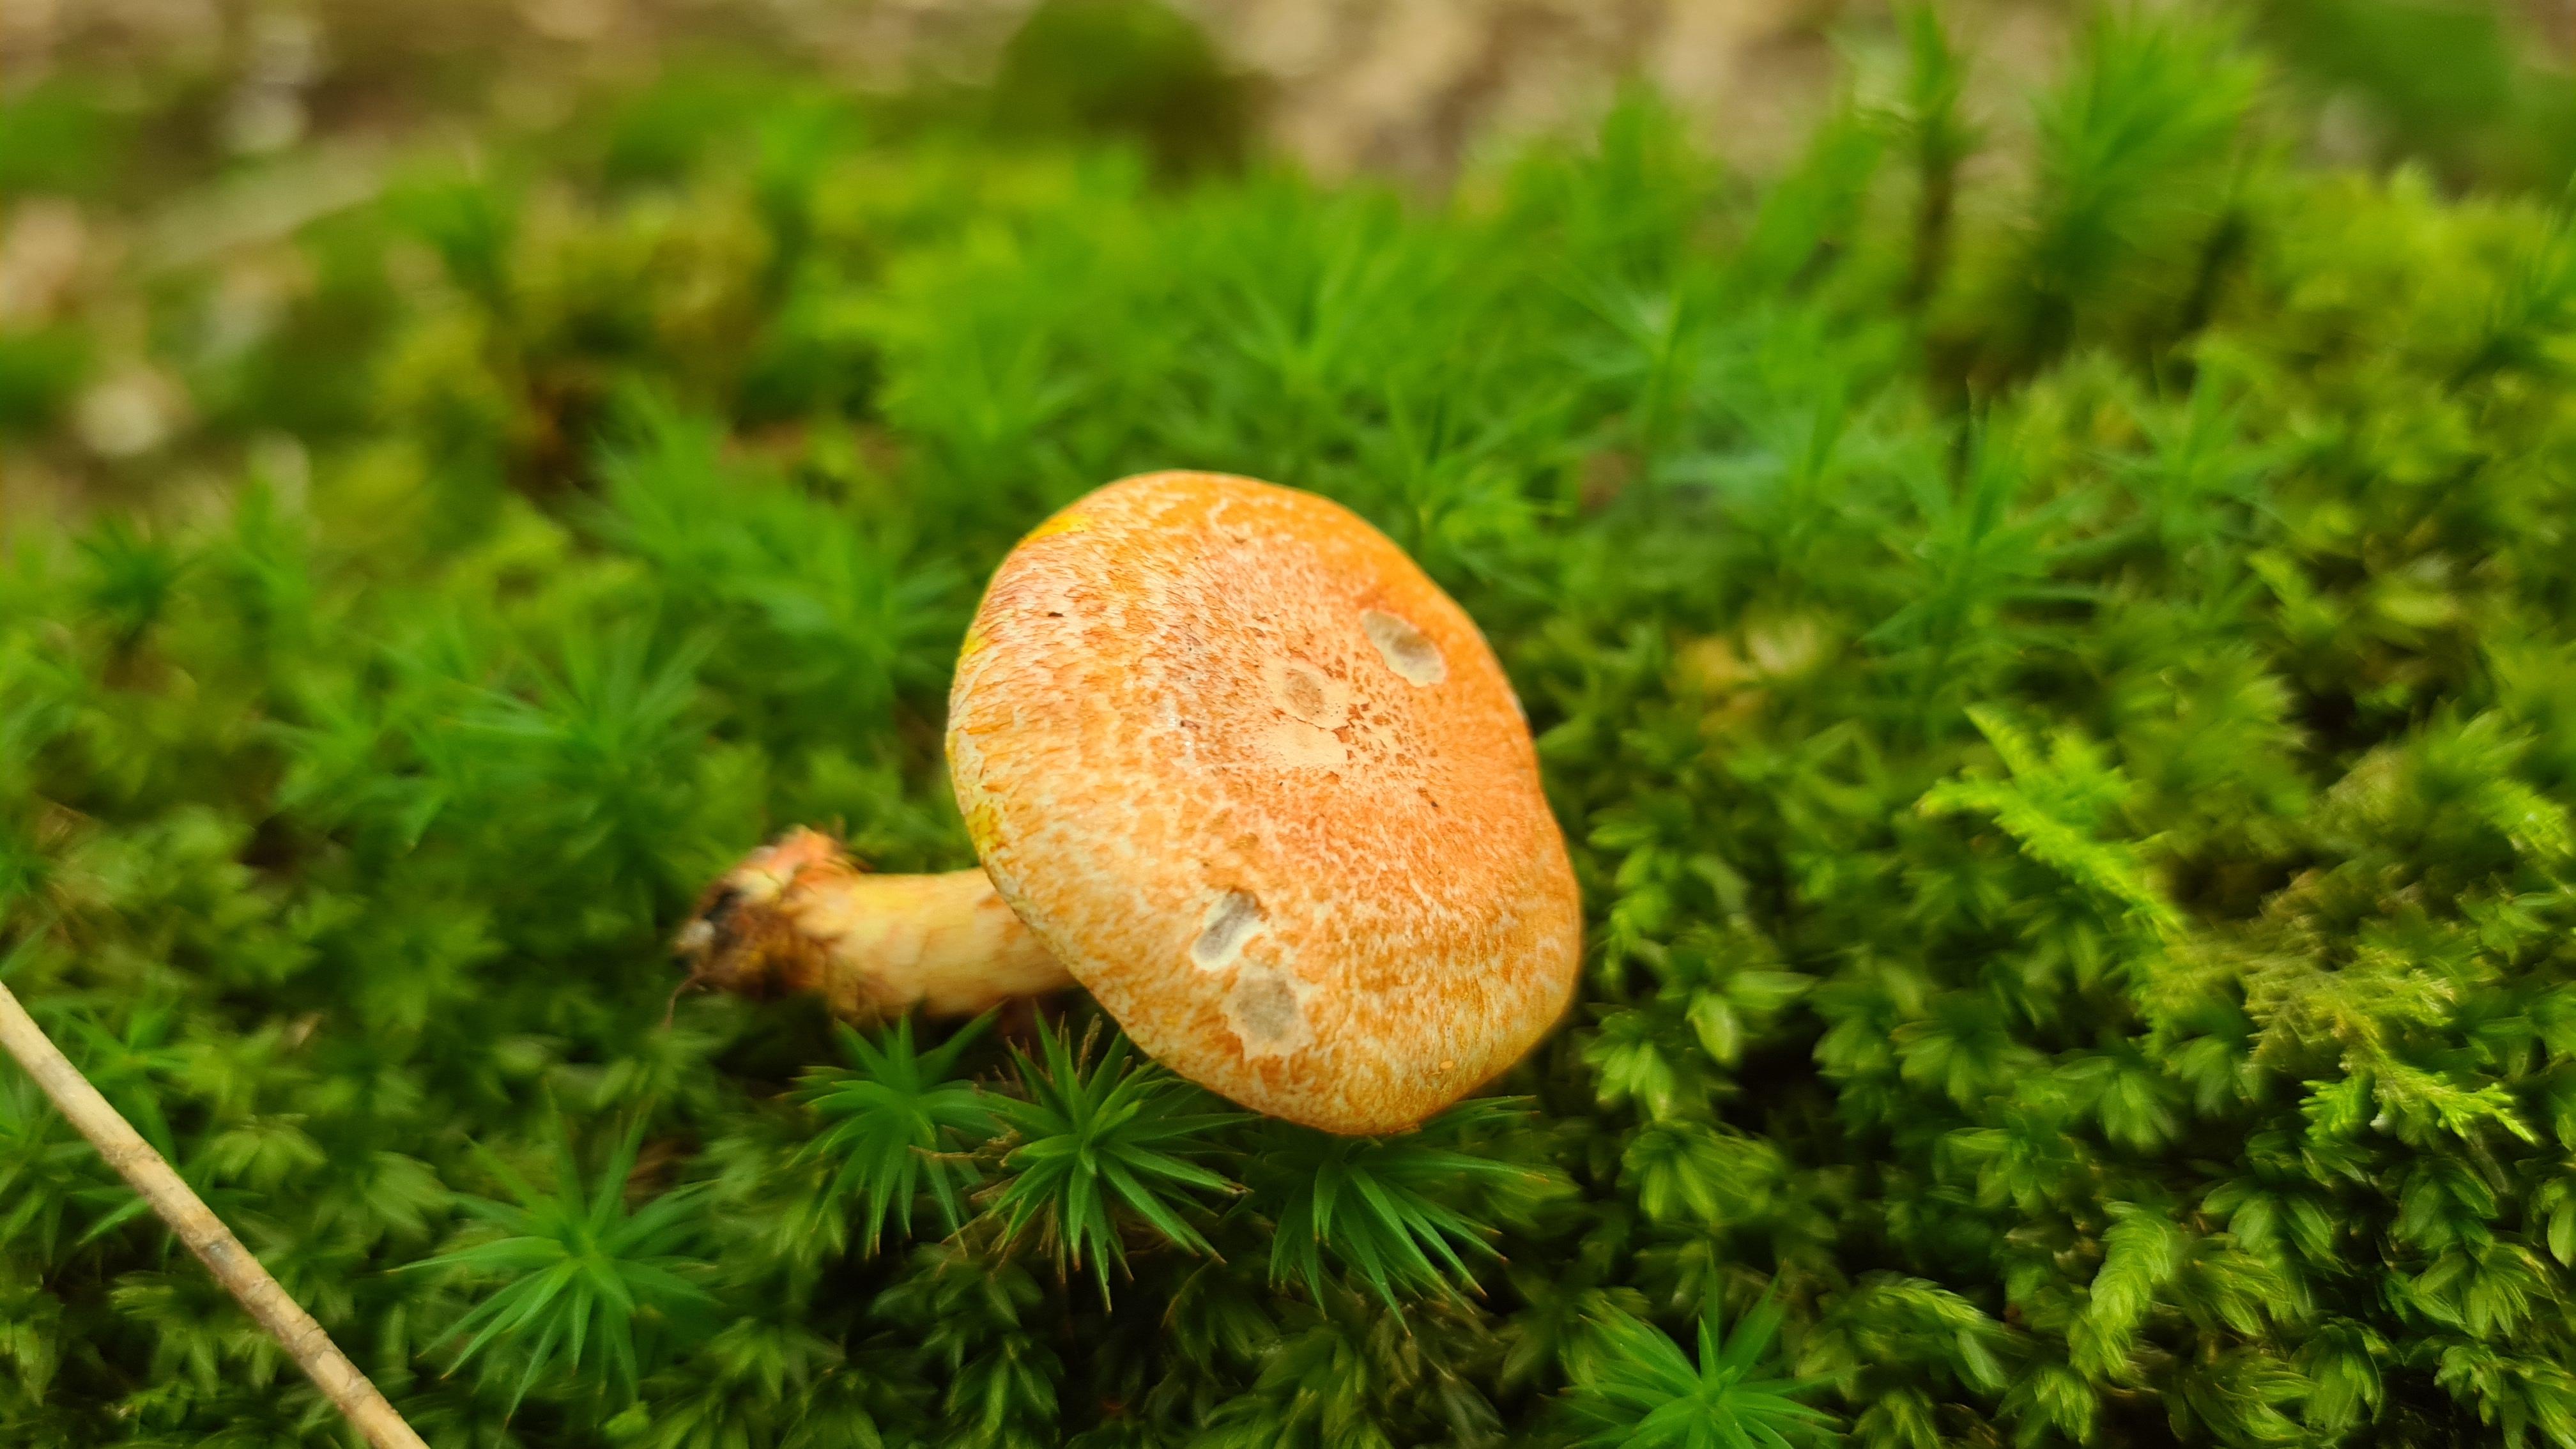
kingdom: Fungi
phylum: Basidiomycota
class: Agaricomycetes
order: Agaricales
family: Cortinariaceae
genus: Cortinarius
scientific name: Cortinarius bolaris
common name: cinnoberskællet slørhat
